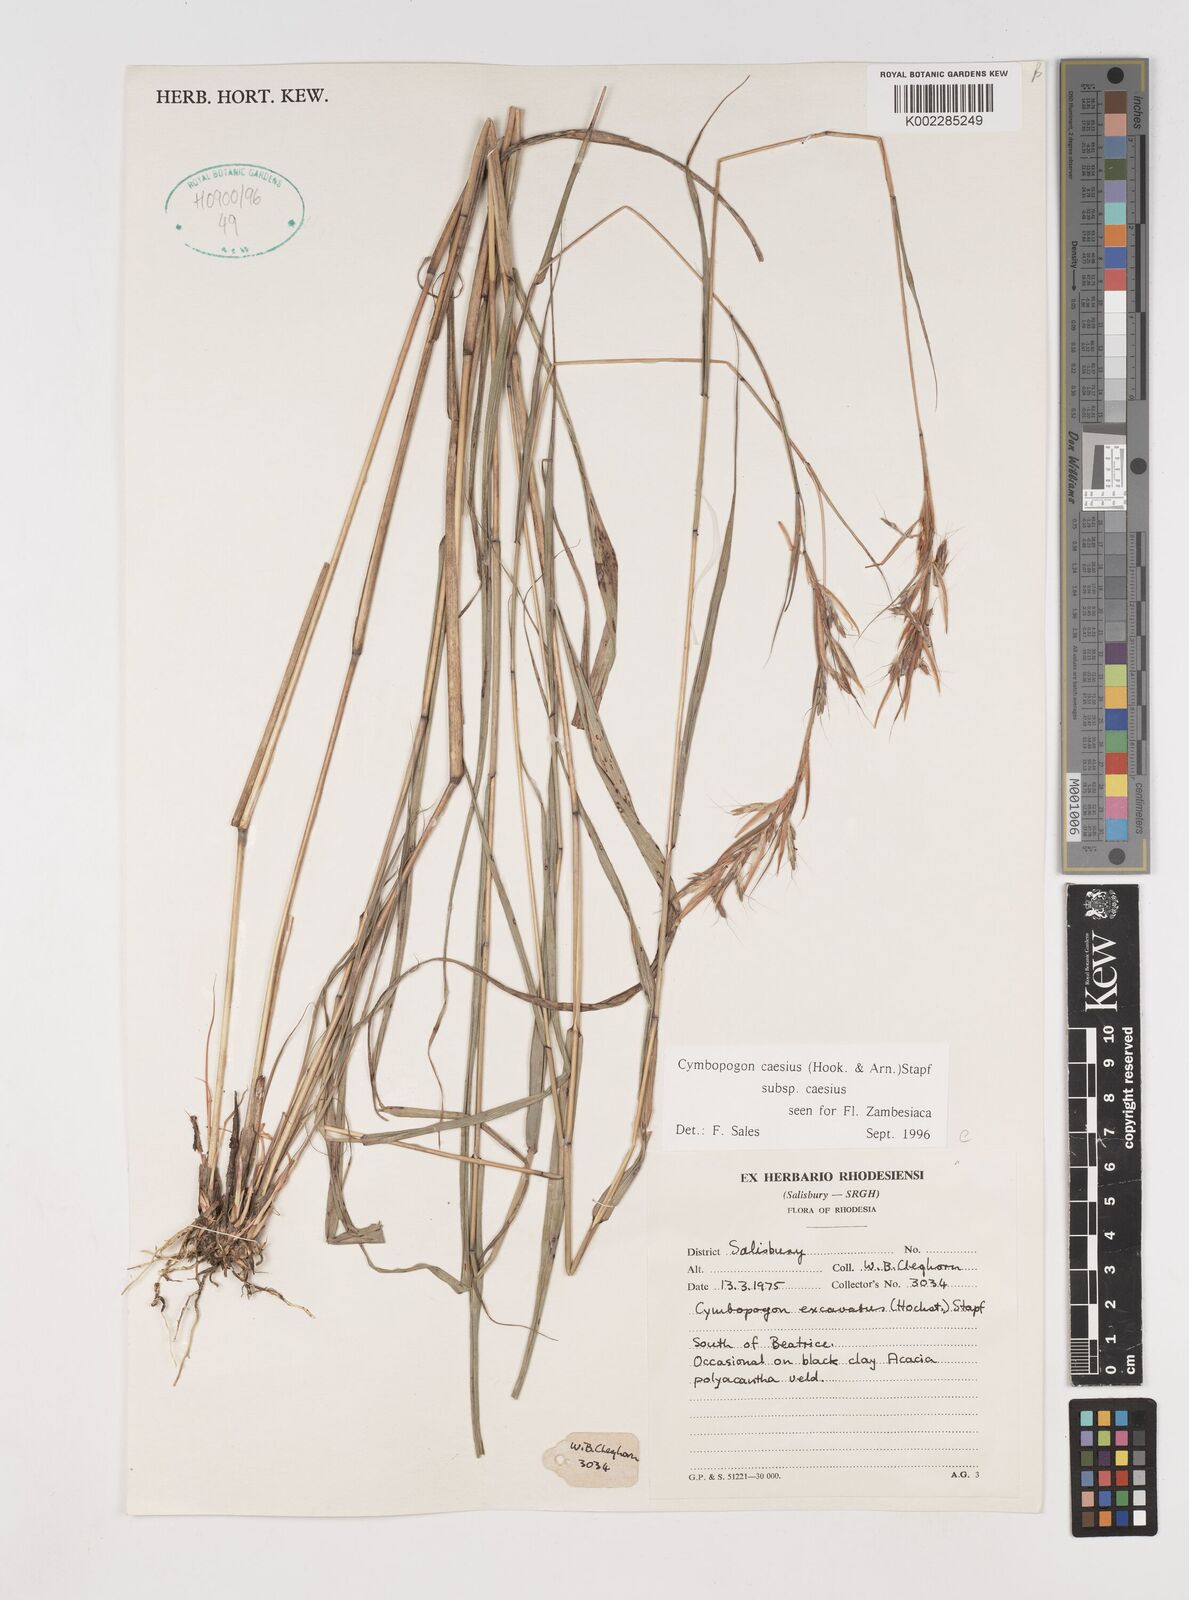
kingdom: Plantae
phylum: Tracheophyta
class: Liliopsida
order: Poales
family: Poaceae
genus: Cymbopogon
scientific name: Cymbopogon caesius
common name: Kachi grass
